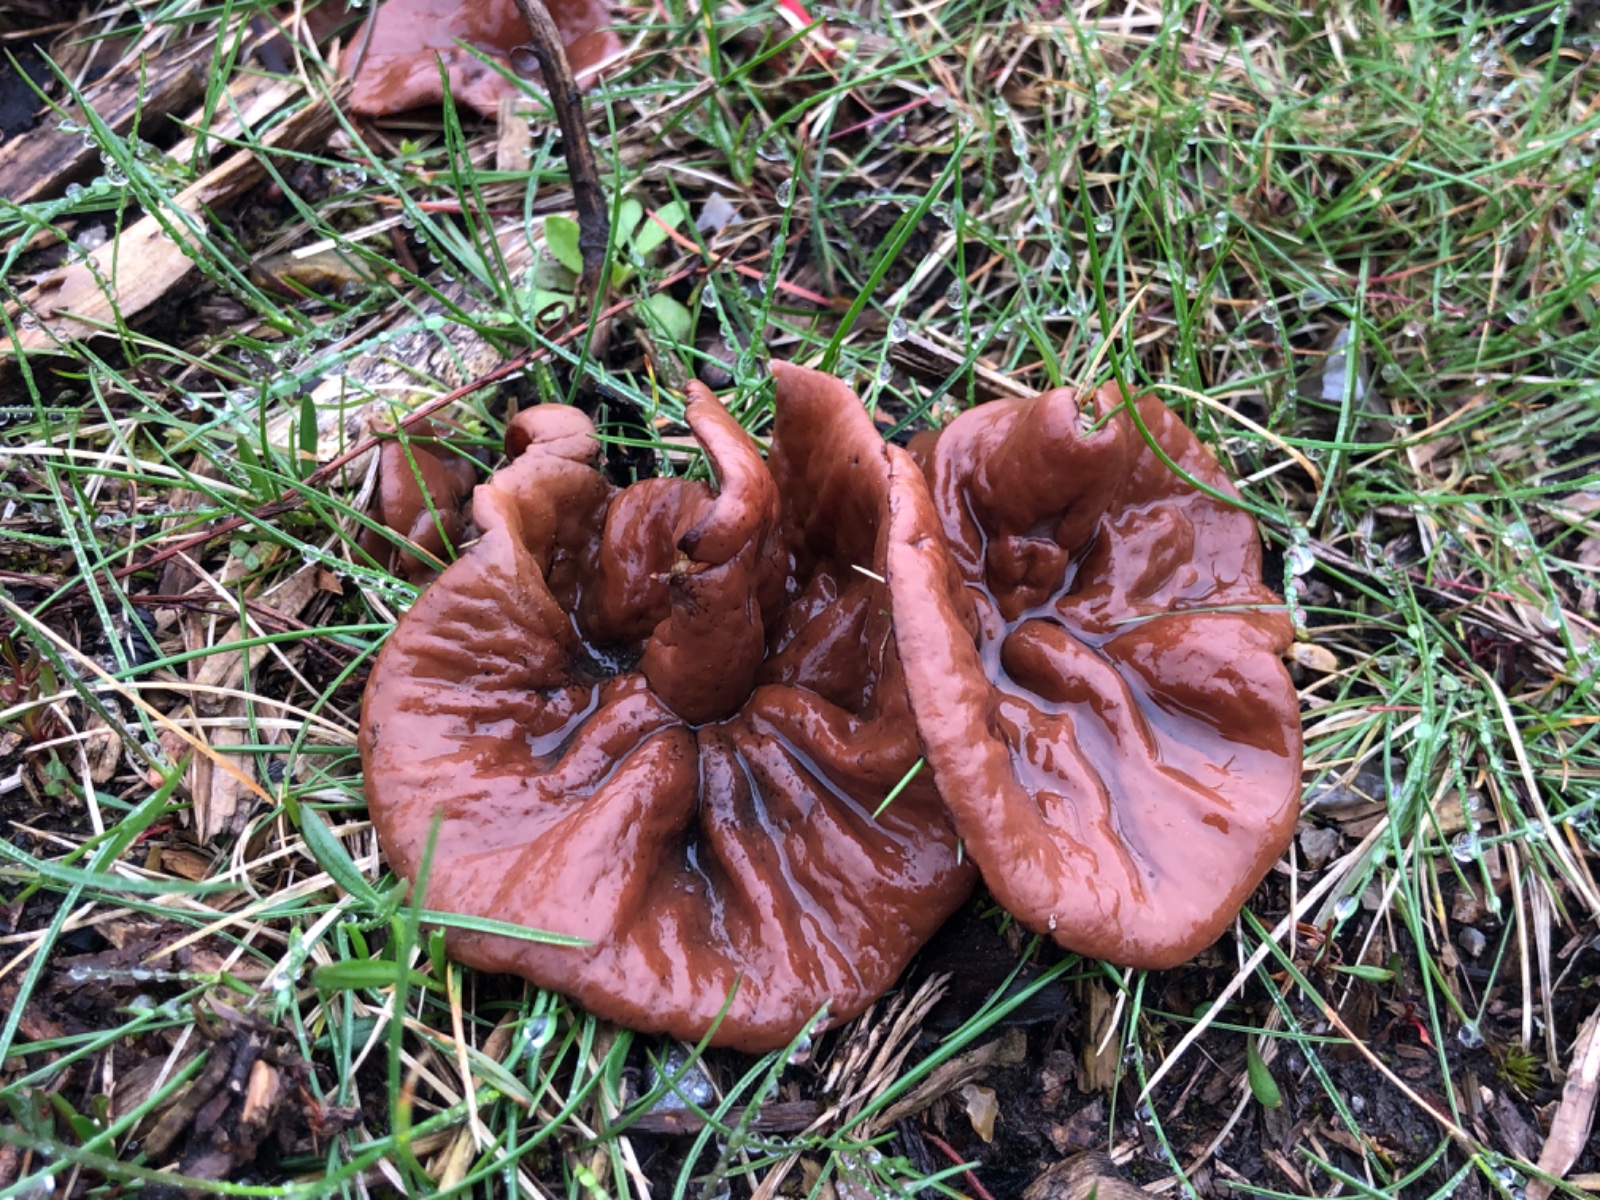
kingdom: Fungi
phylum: Ascomycota
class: Pezizomycetes
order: Pezizales
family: Discinaceae
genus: Discina
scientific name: Discina ancilis
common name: udbredt stenmorkel
